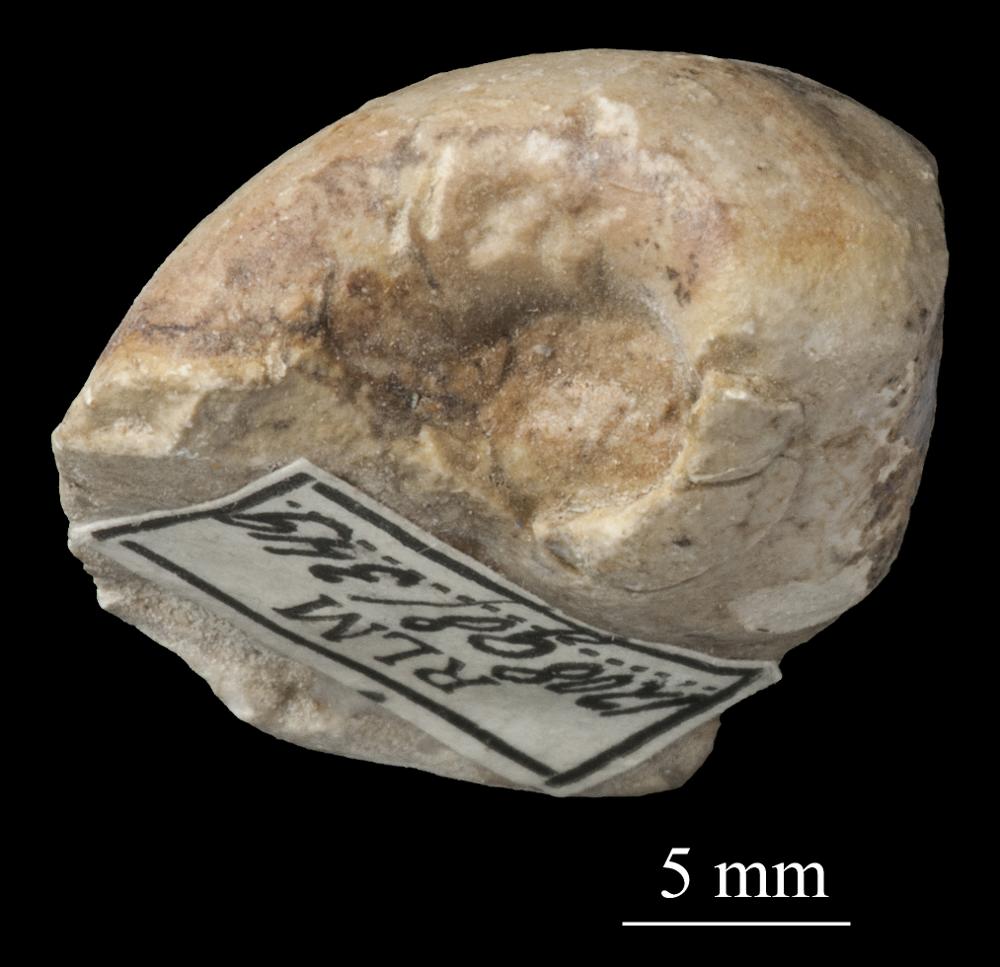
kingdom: Animalia
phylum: Mollusca
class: Gastropoda
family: Bellerophontidae
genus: Bellerophon
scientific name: Bellerophon
